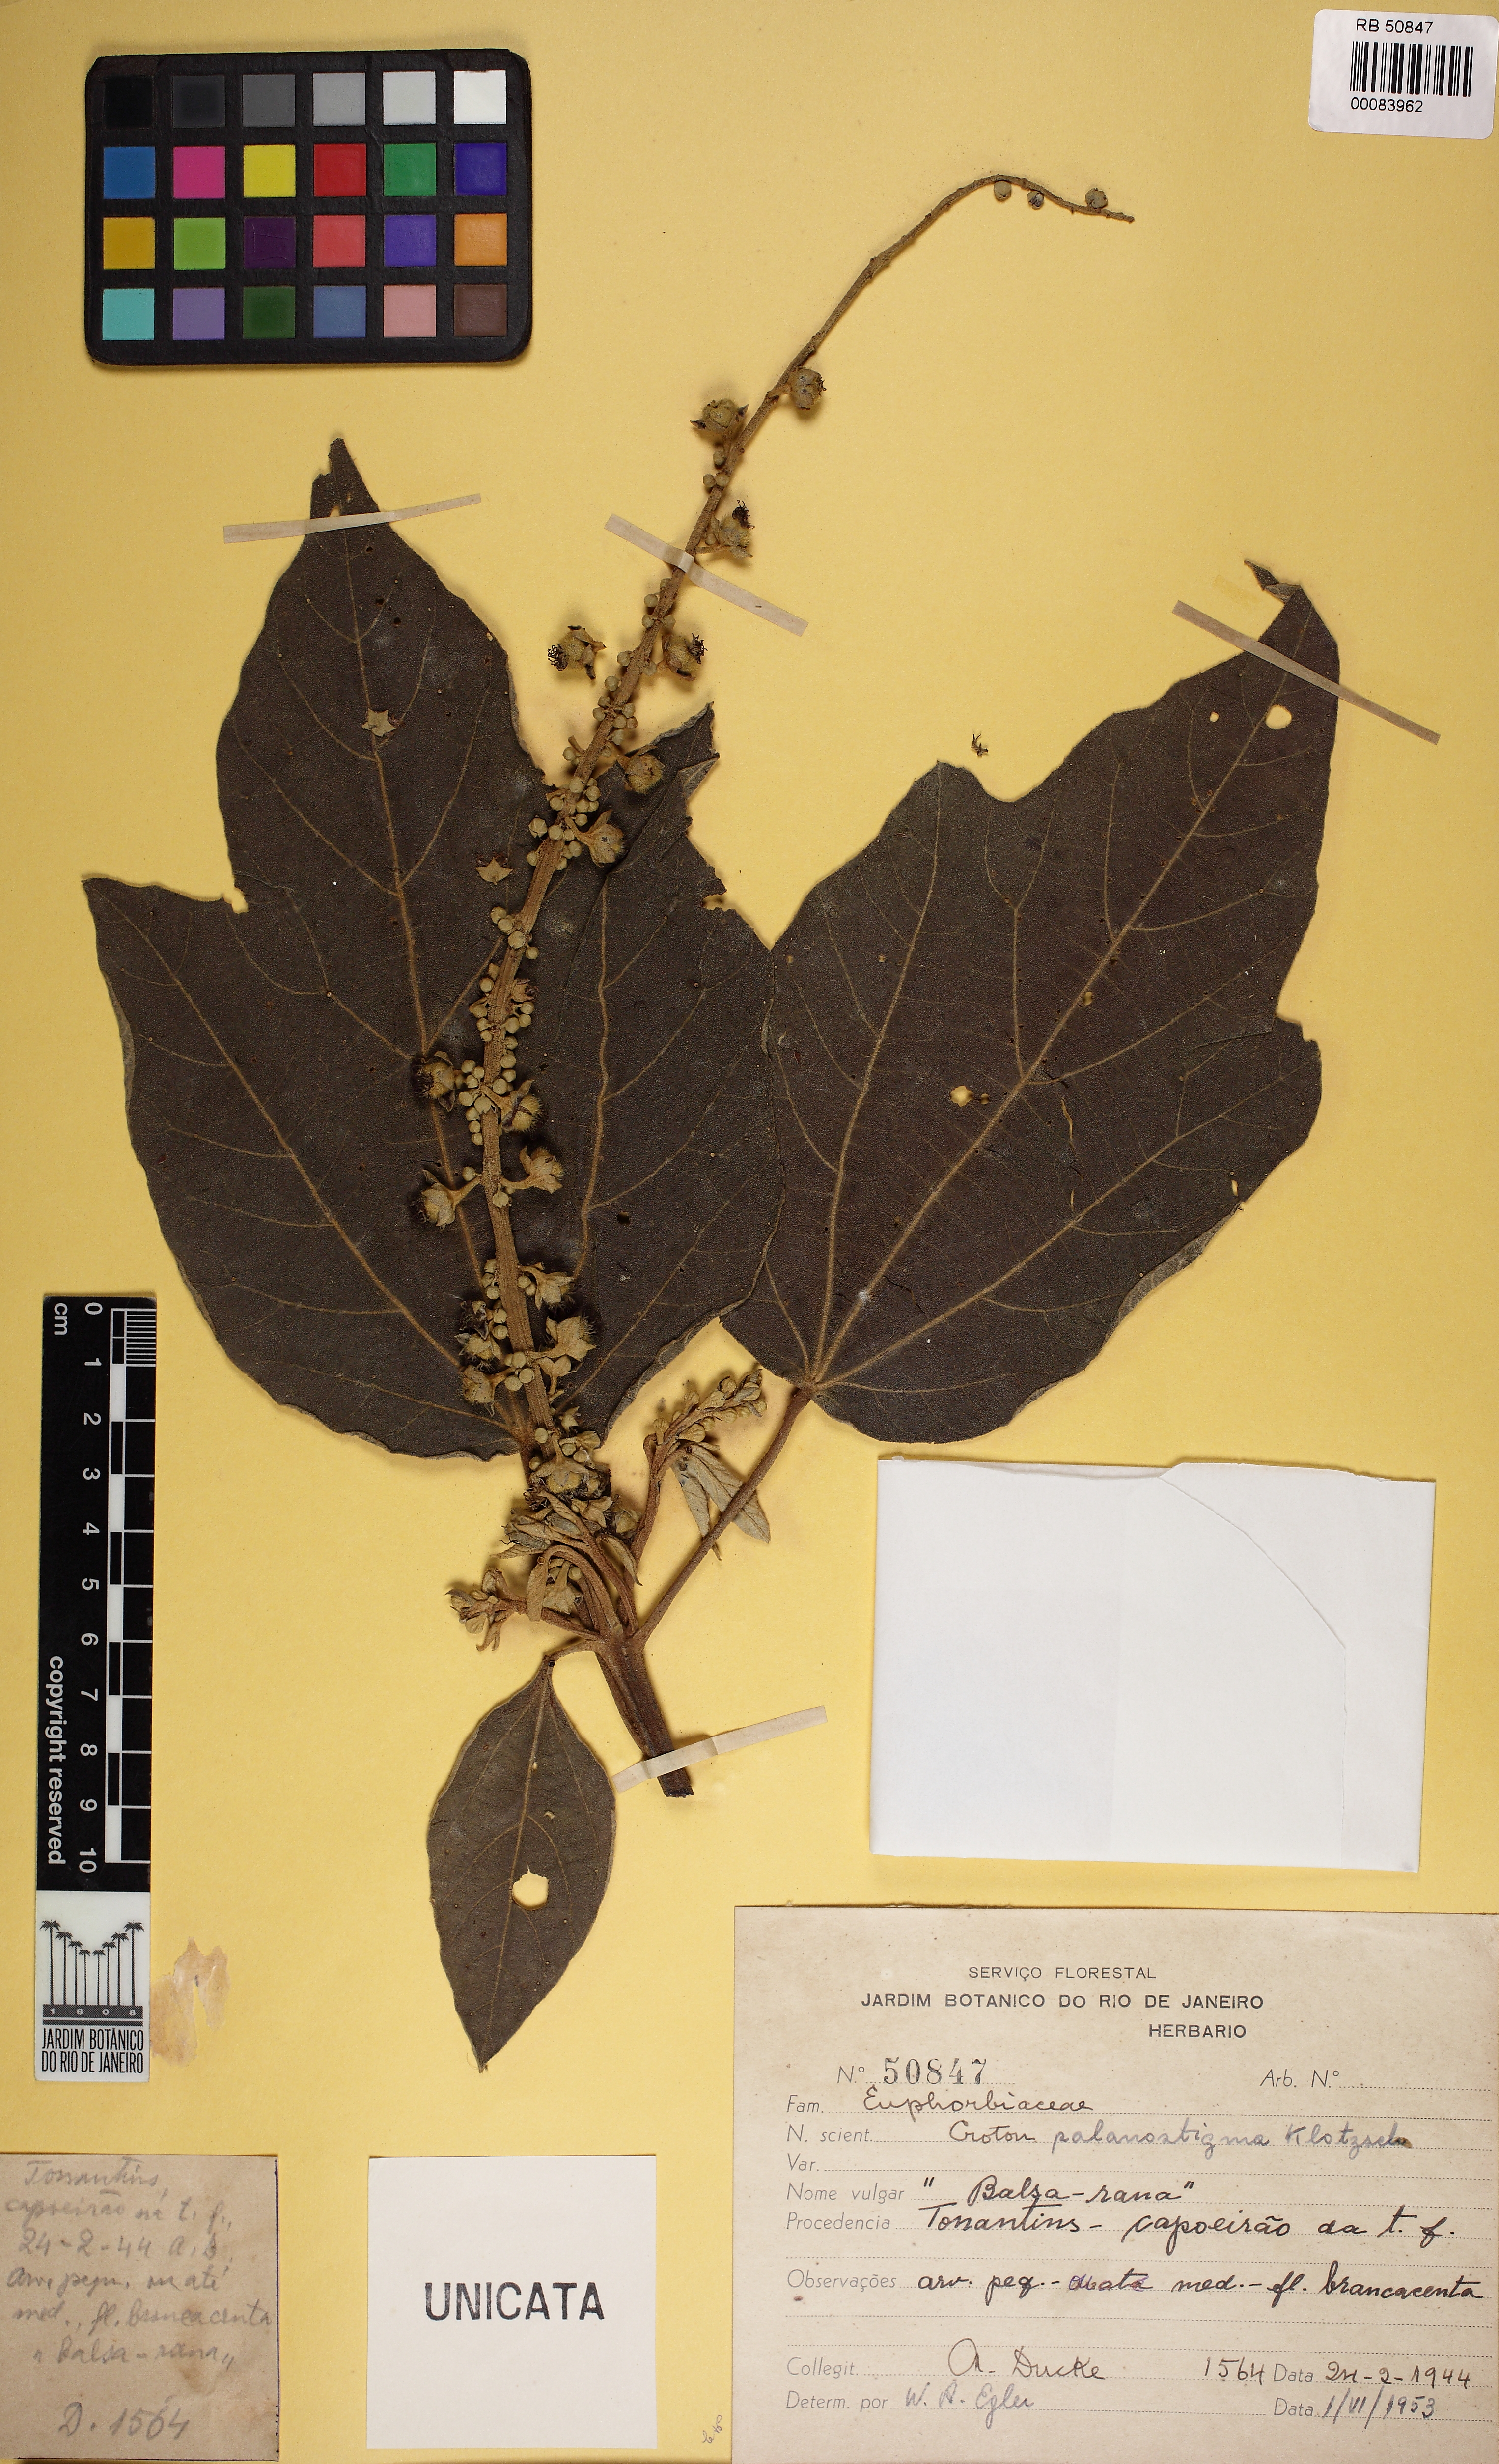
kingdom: Plantae
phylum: Tracheophyta
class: Magnoliopsida
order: Malpighiales
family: Euphorbiaceae
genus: Croton
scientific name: Croton palanostigma
